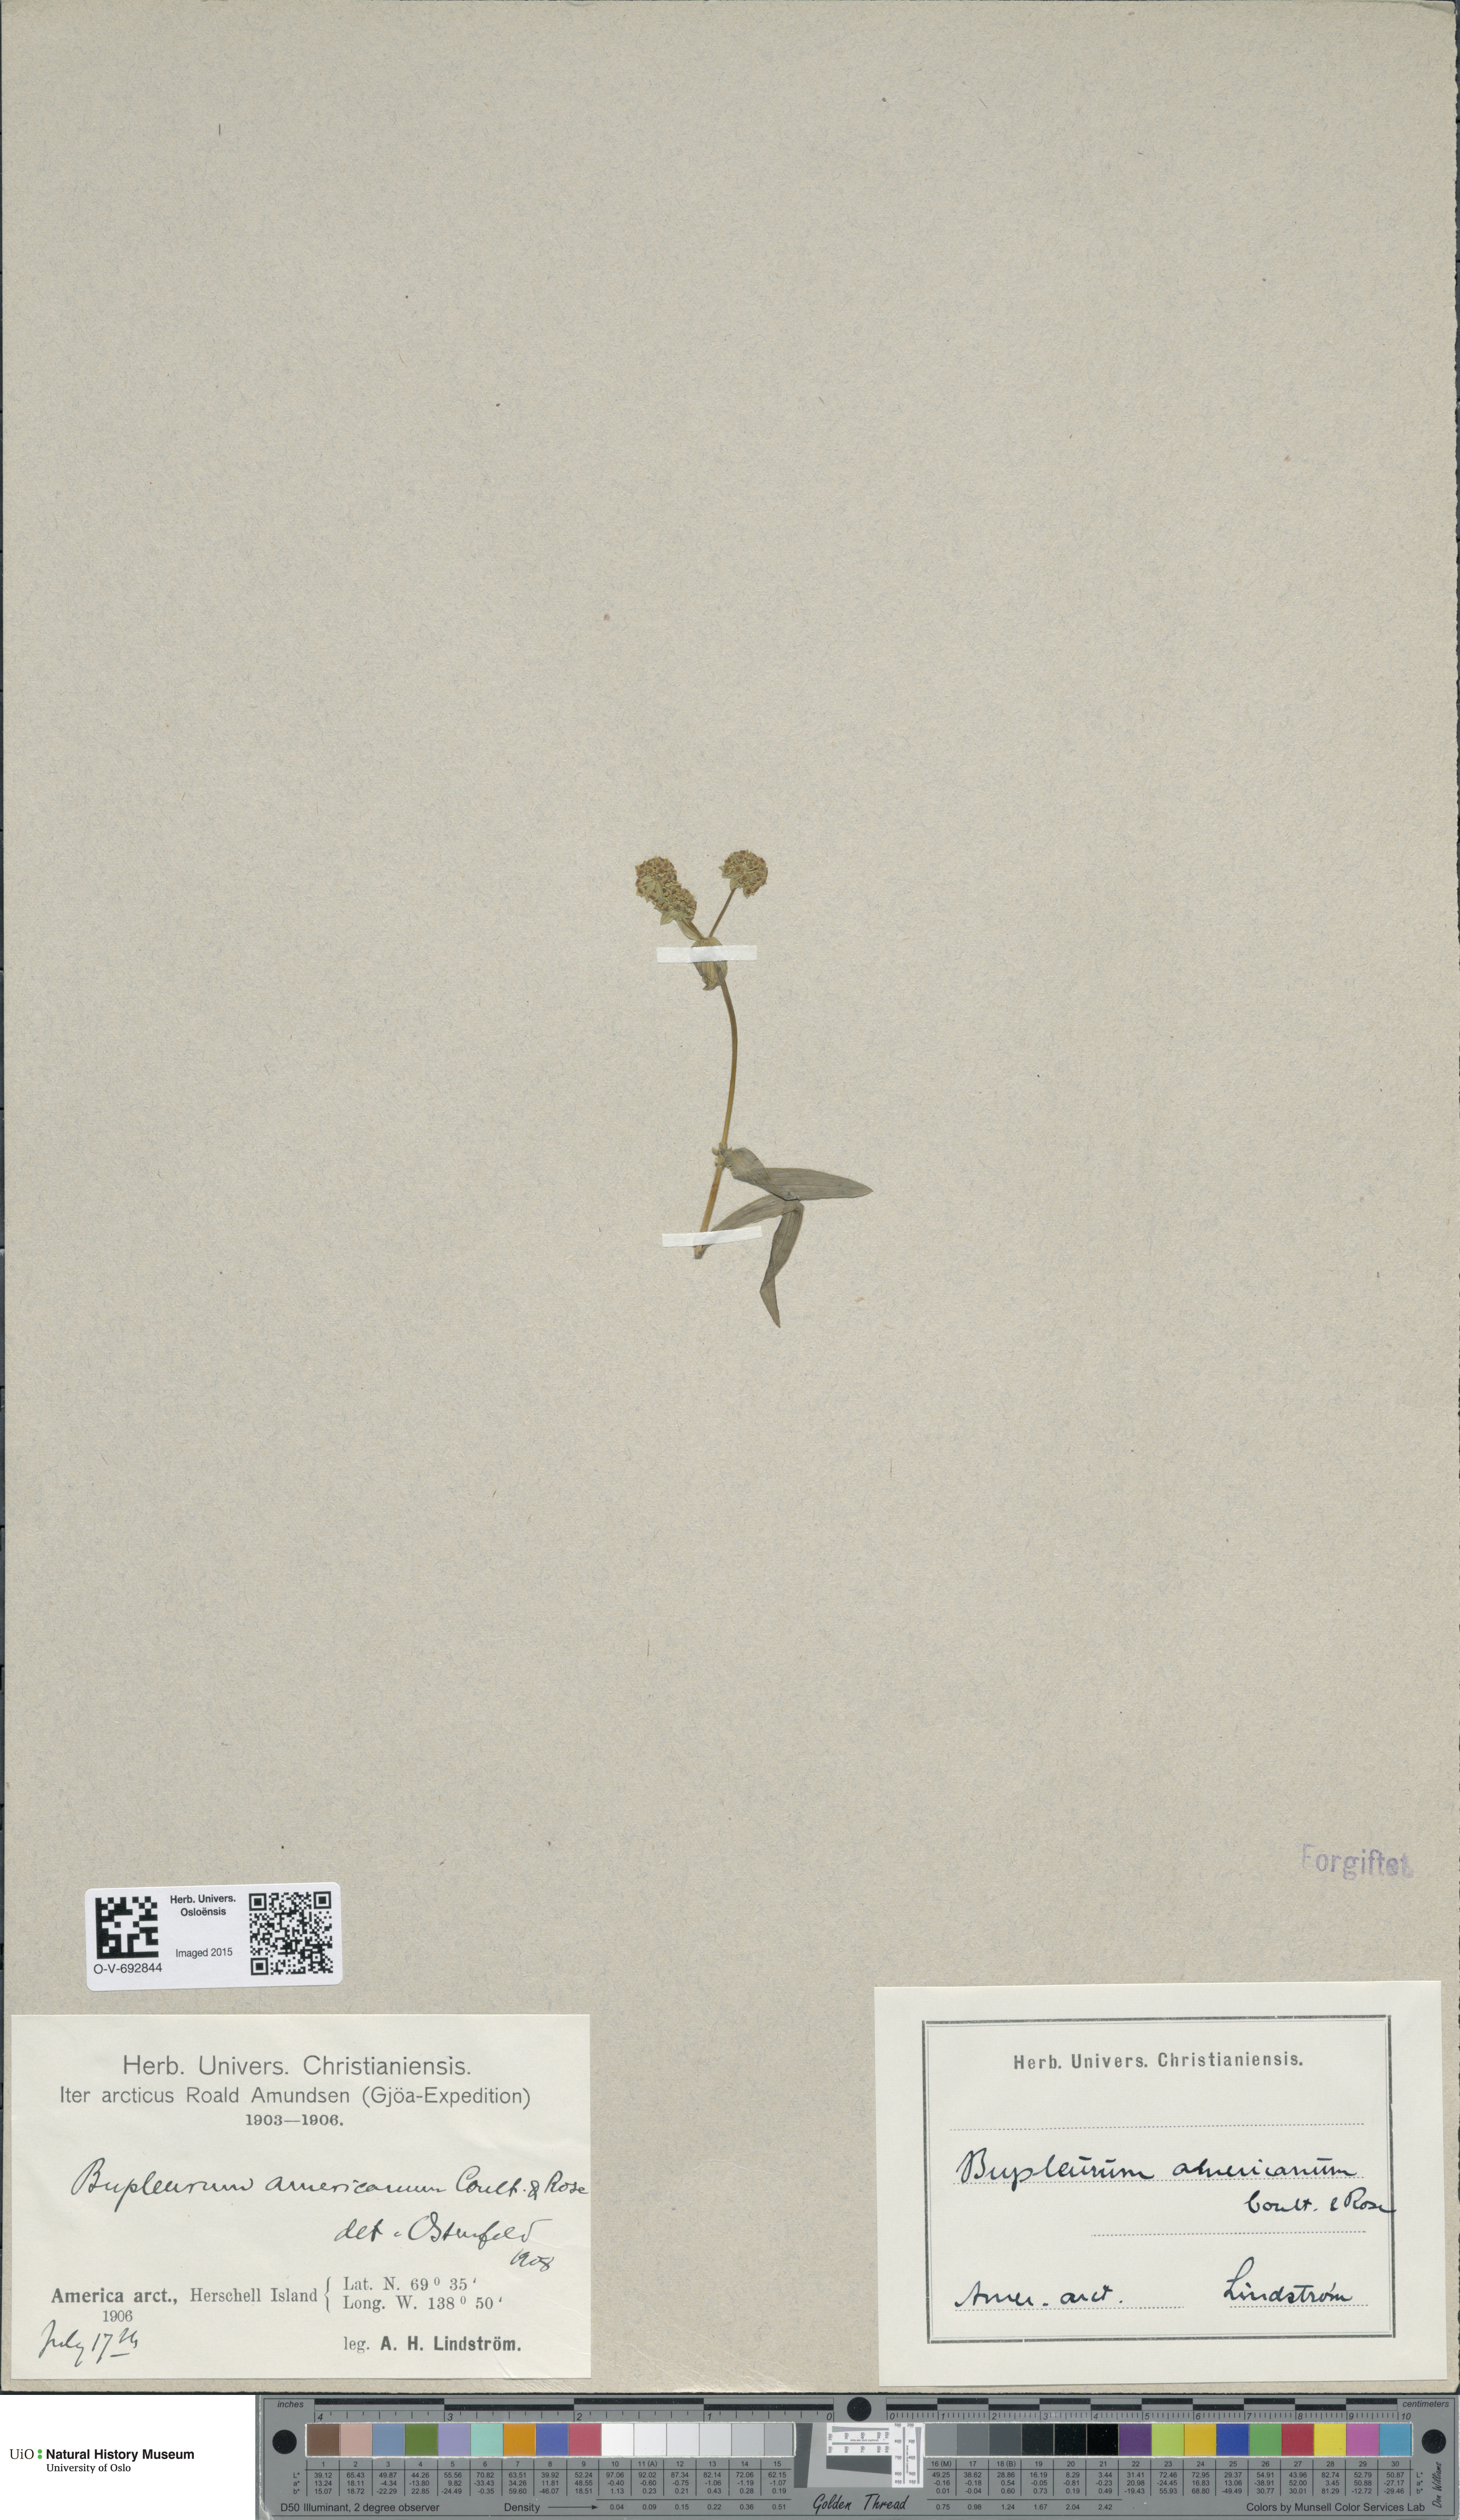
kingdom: Plantae
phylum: Tracheophyta
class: Magnoliopsida
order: Apiales
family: Apiaceae
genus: Bupleurum
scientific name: Bupleurum americanum
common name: American thoroughwax
